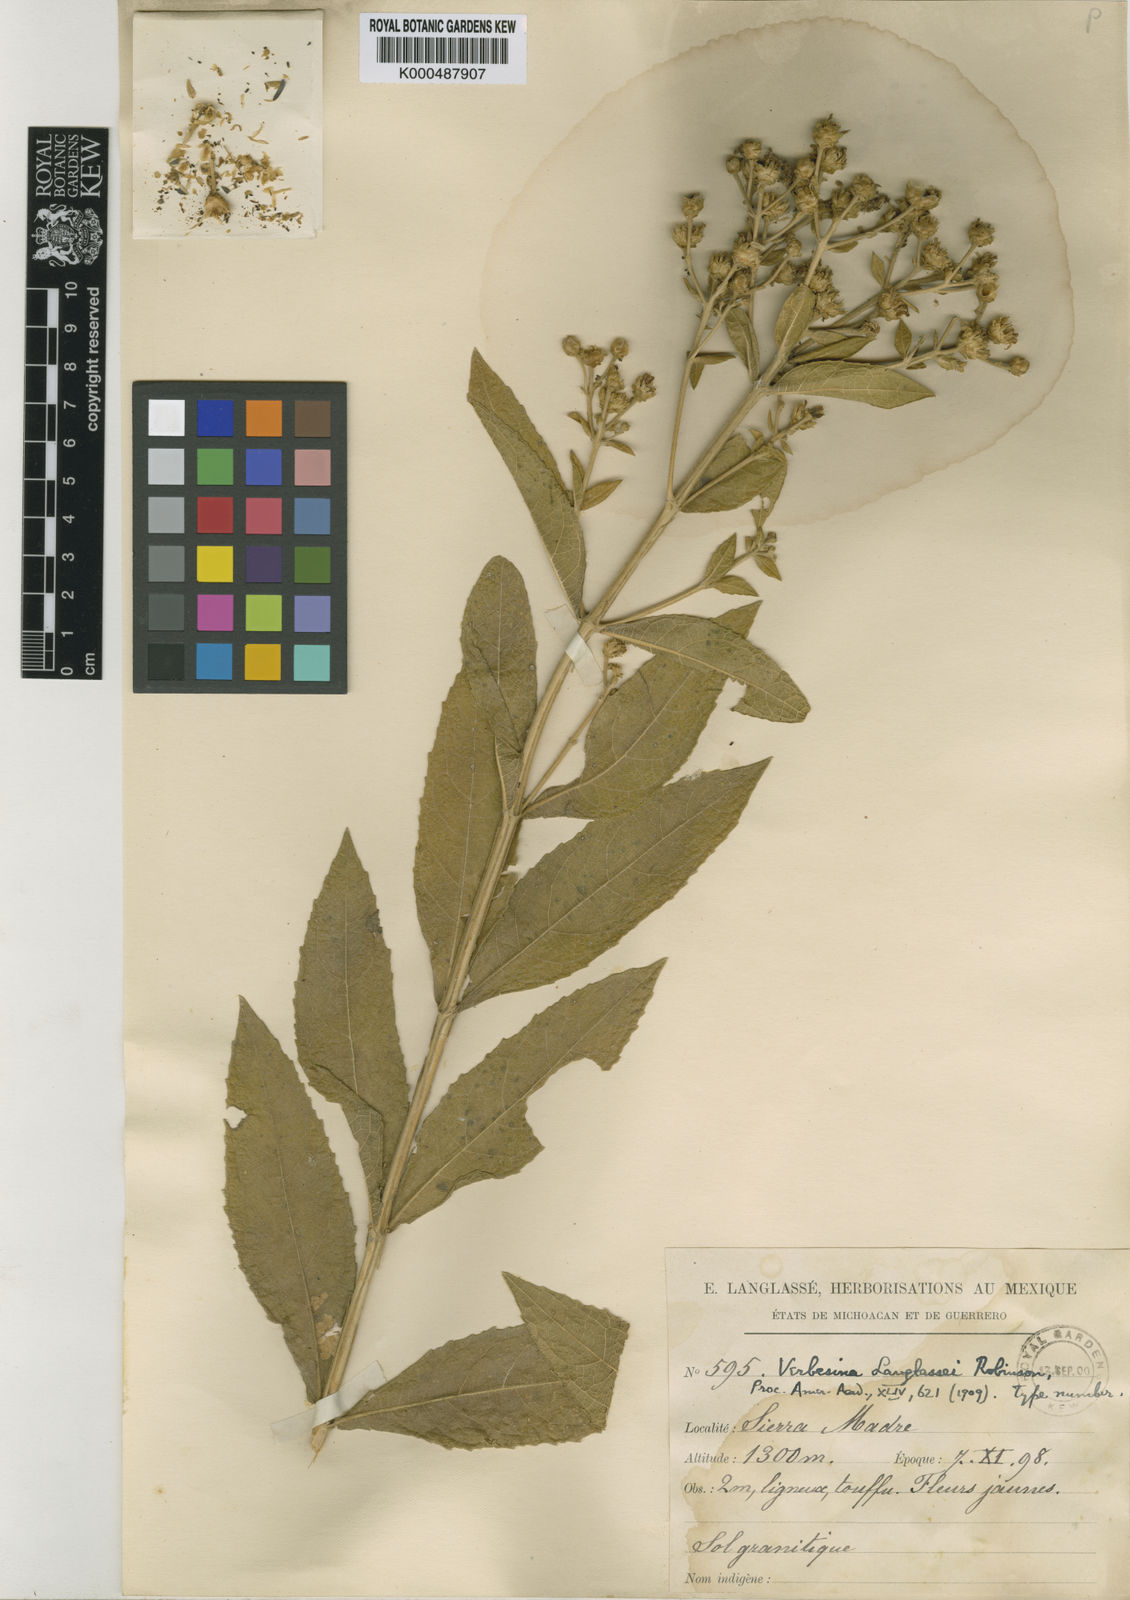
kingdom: Plantae
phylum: Tracheophyta
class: Magnoliopsida
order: Asterales
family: Asteraceae
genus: Verbesina
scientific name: Verbesina langlassei
